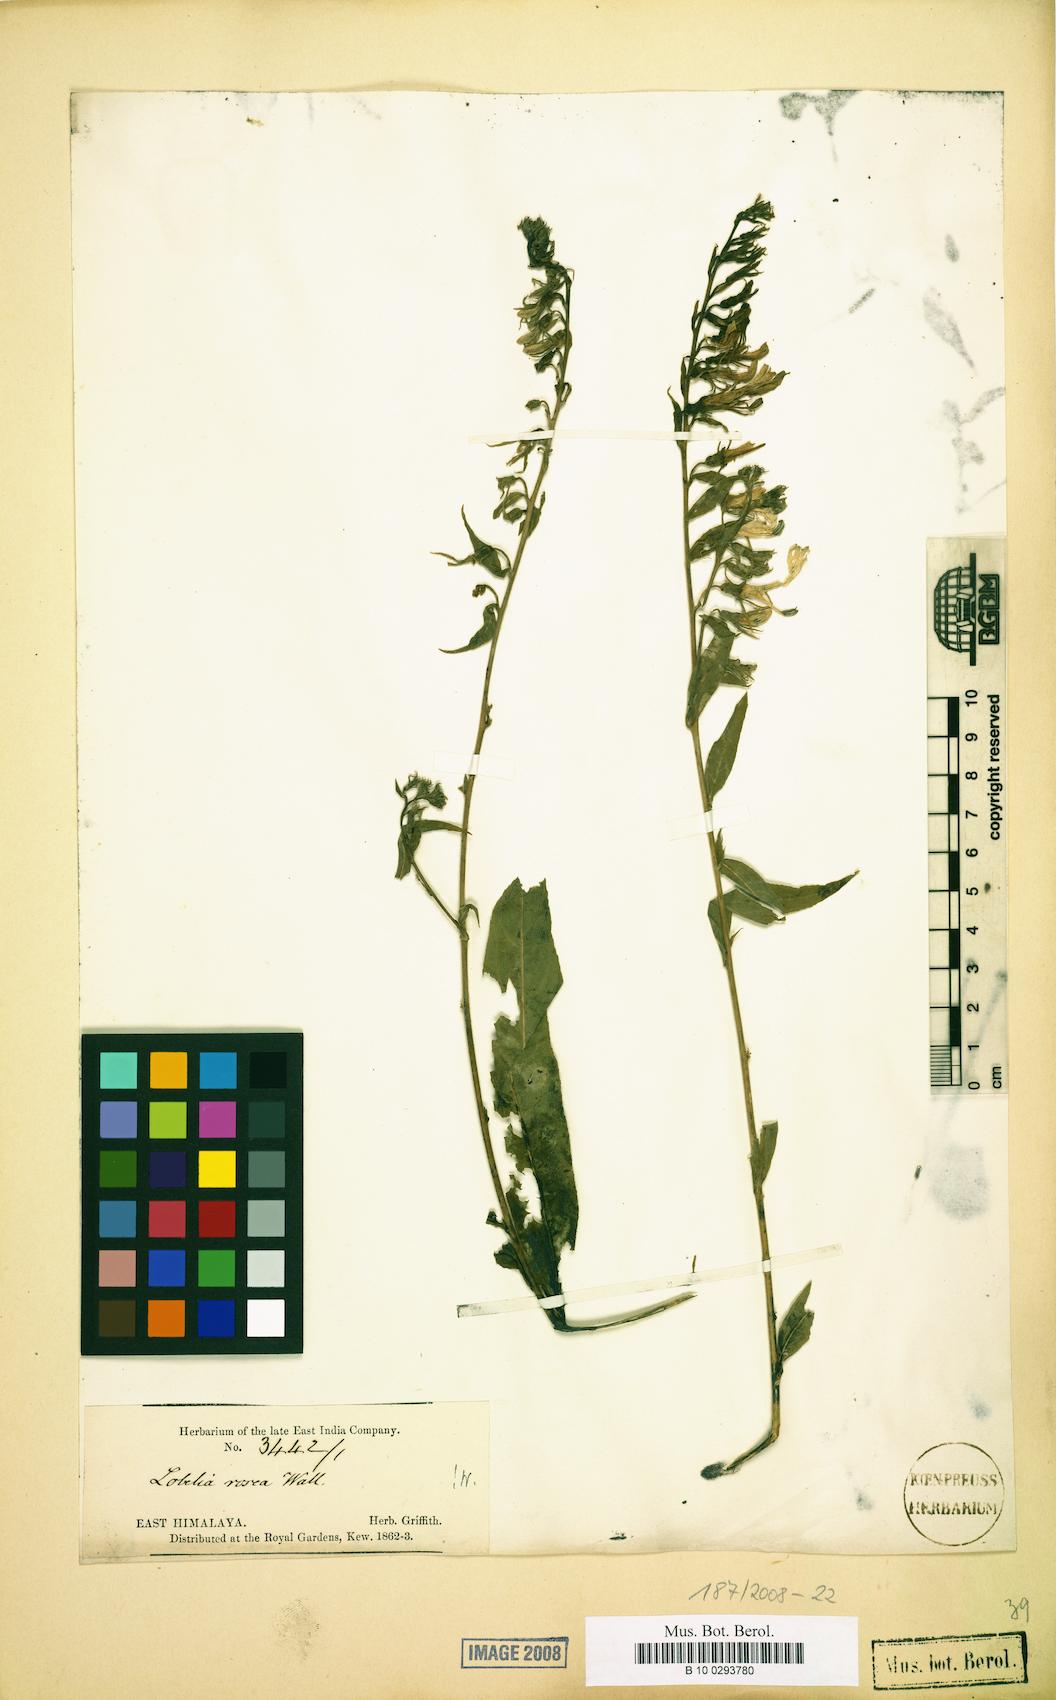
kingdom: Plantae
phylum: Tracheophyta
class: Magnoliopsida
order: Asterales
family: Campanulaceae
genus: Lobelia
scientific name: Lobelia rosea
